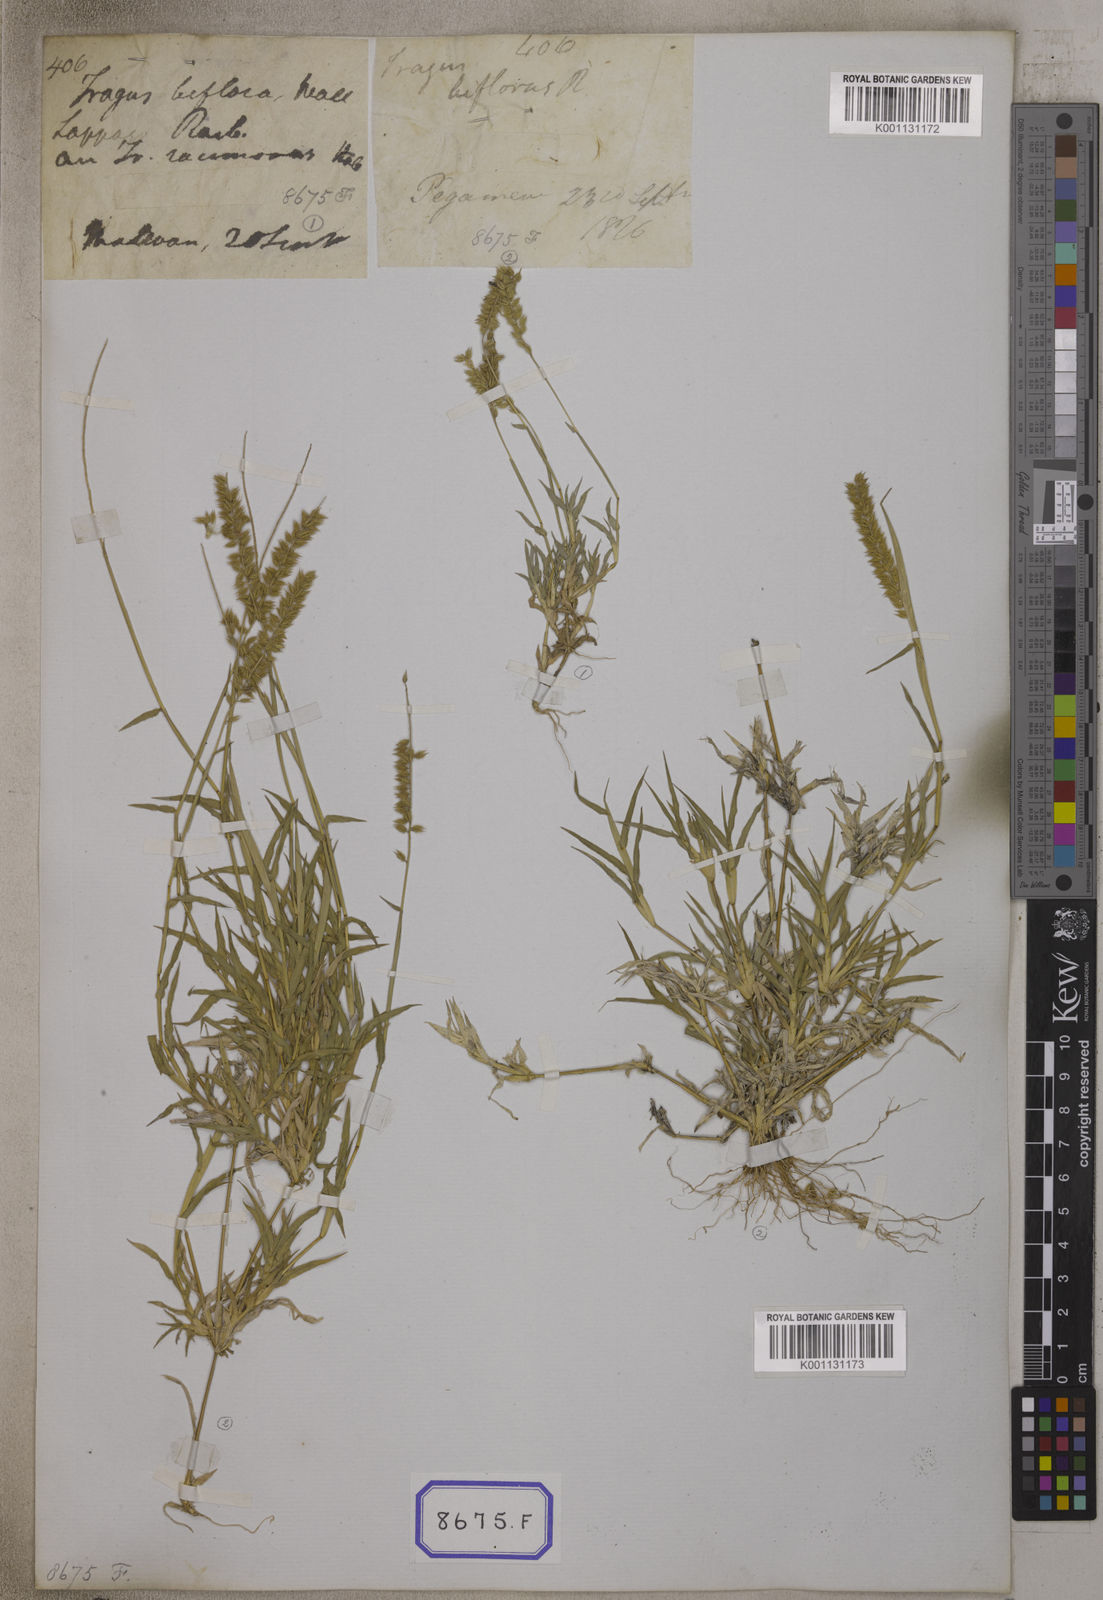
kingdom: Plantae
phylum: Tracheophyta
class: Liliopsida
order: Poales
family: Poaceae
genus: Tragus
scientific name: Tragus racemosus
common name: European bur-grass
